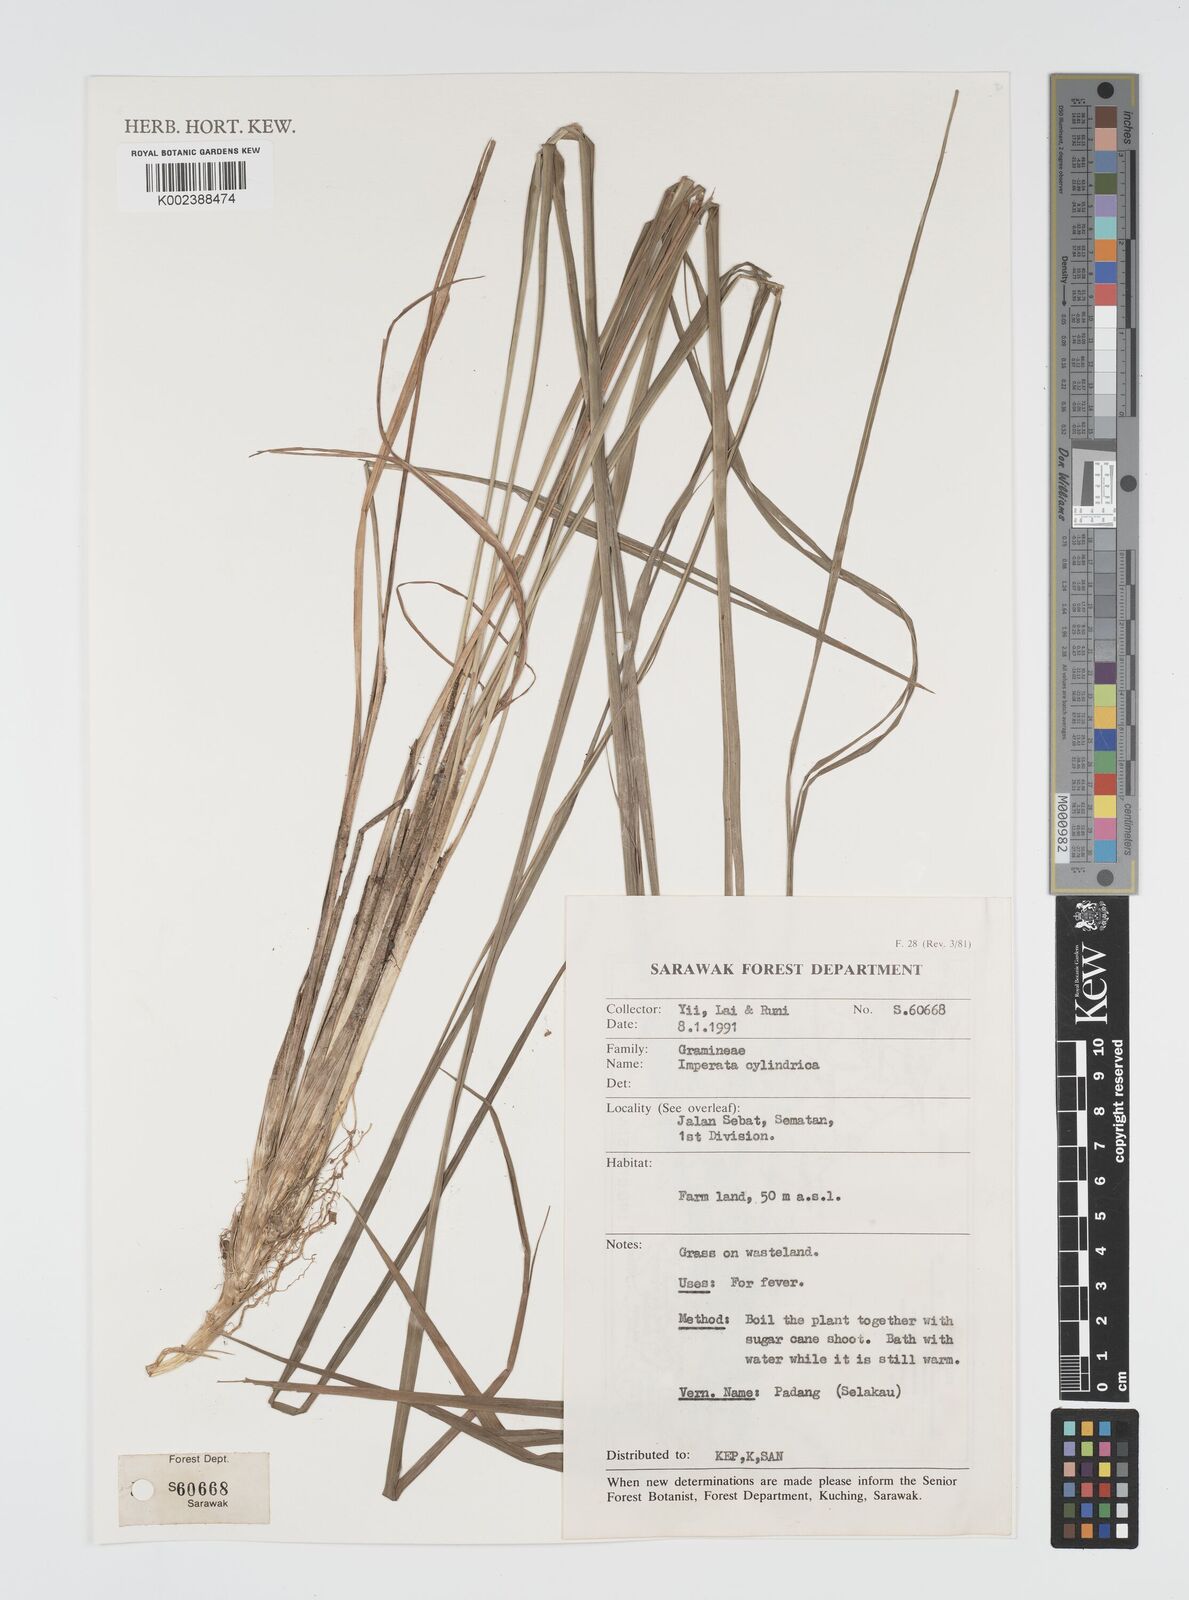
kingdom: Plantae
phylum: Tracheophyta
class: Liliopsida
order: Poales
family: Poaceae
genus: Imperata
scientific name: Imperata cylindrica
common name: Cogongrass
